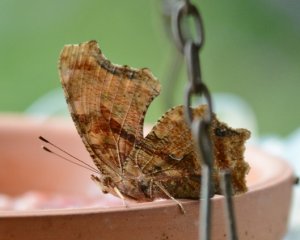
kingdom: Animalia
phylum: Arthropoda
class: Insecta
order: Lepidoptera
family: Nymphalidae
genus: Polygonia
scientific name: Polygonia comma
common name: Eastern Comma
